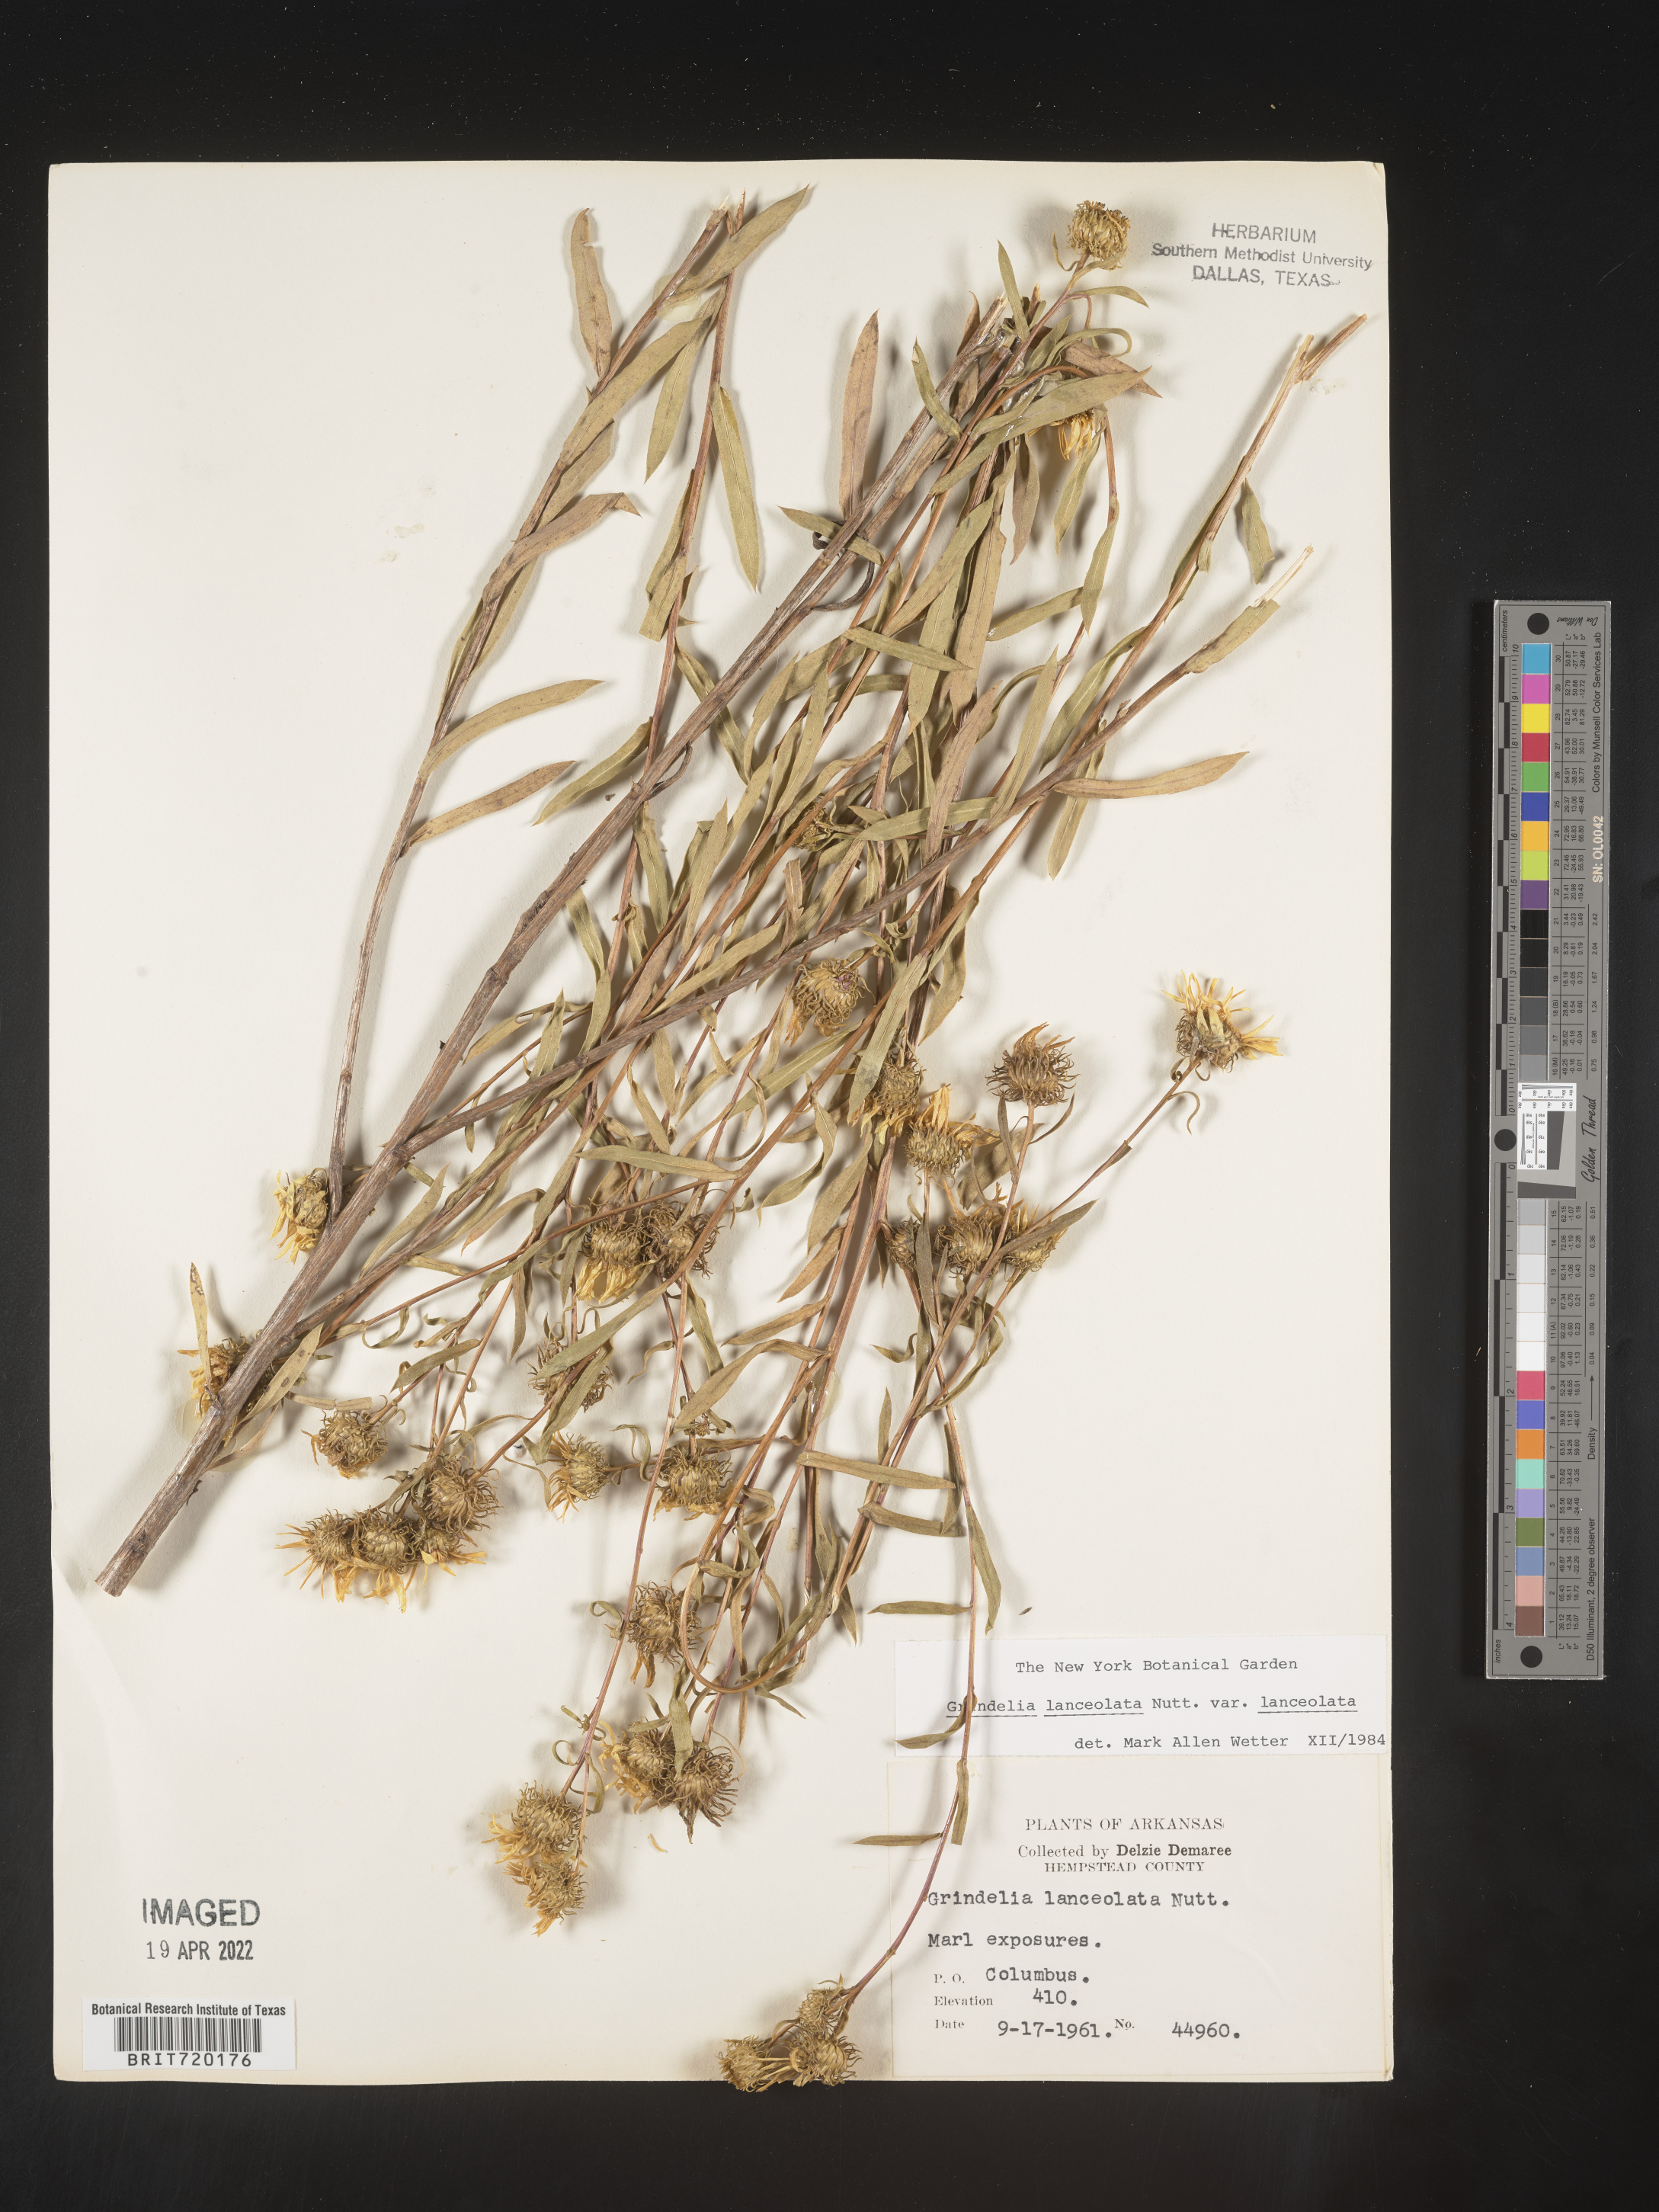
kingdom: Plantae
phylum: Tracheophyta
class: Magnoliopsida
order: Asterales
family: Asteraceae
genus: Grindelia
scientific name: Grindelia lanceolata
